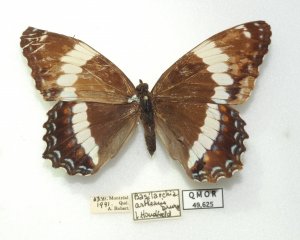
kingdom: Animalia
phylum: Arthropoda
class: Insecta
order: Lepidoptera
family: Nymphalidae
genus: Limenitis
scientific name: Limenitis arthemis
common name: Red-spotted Admiral
